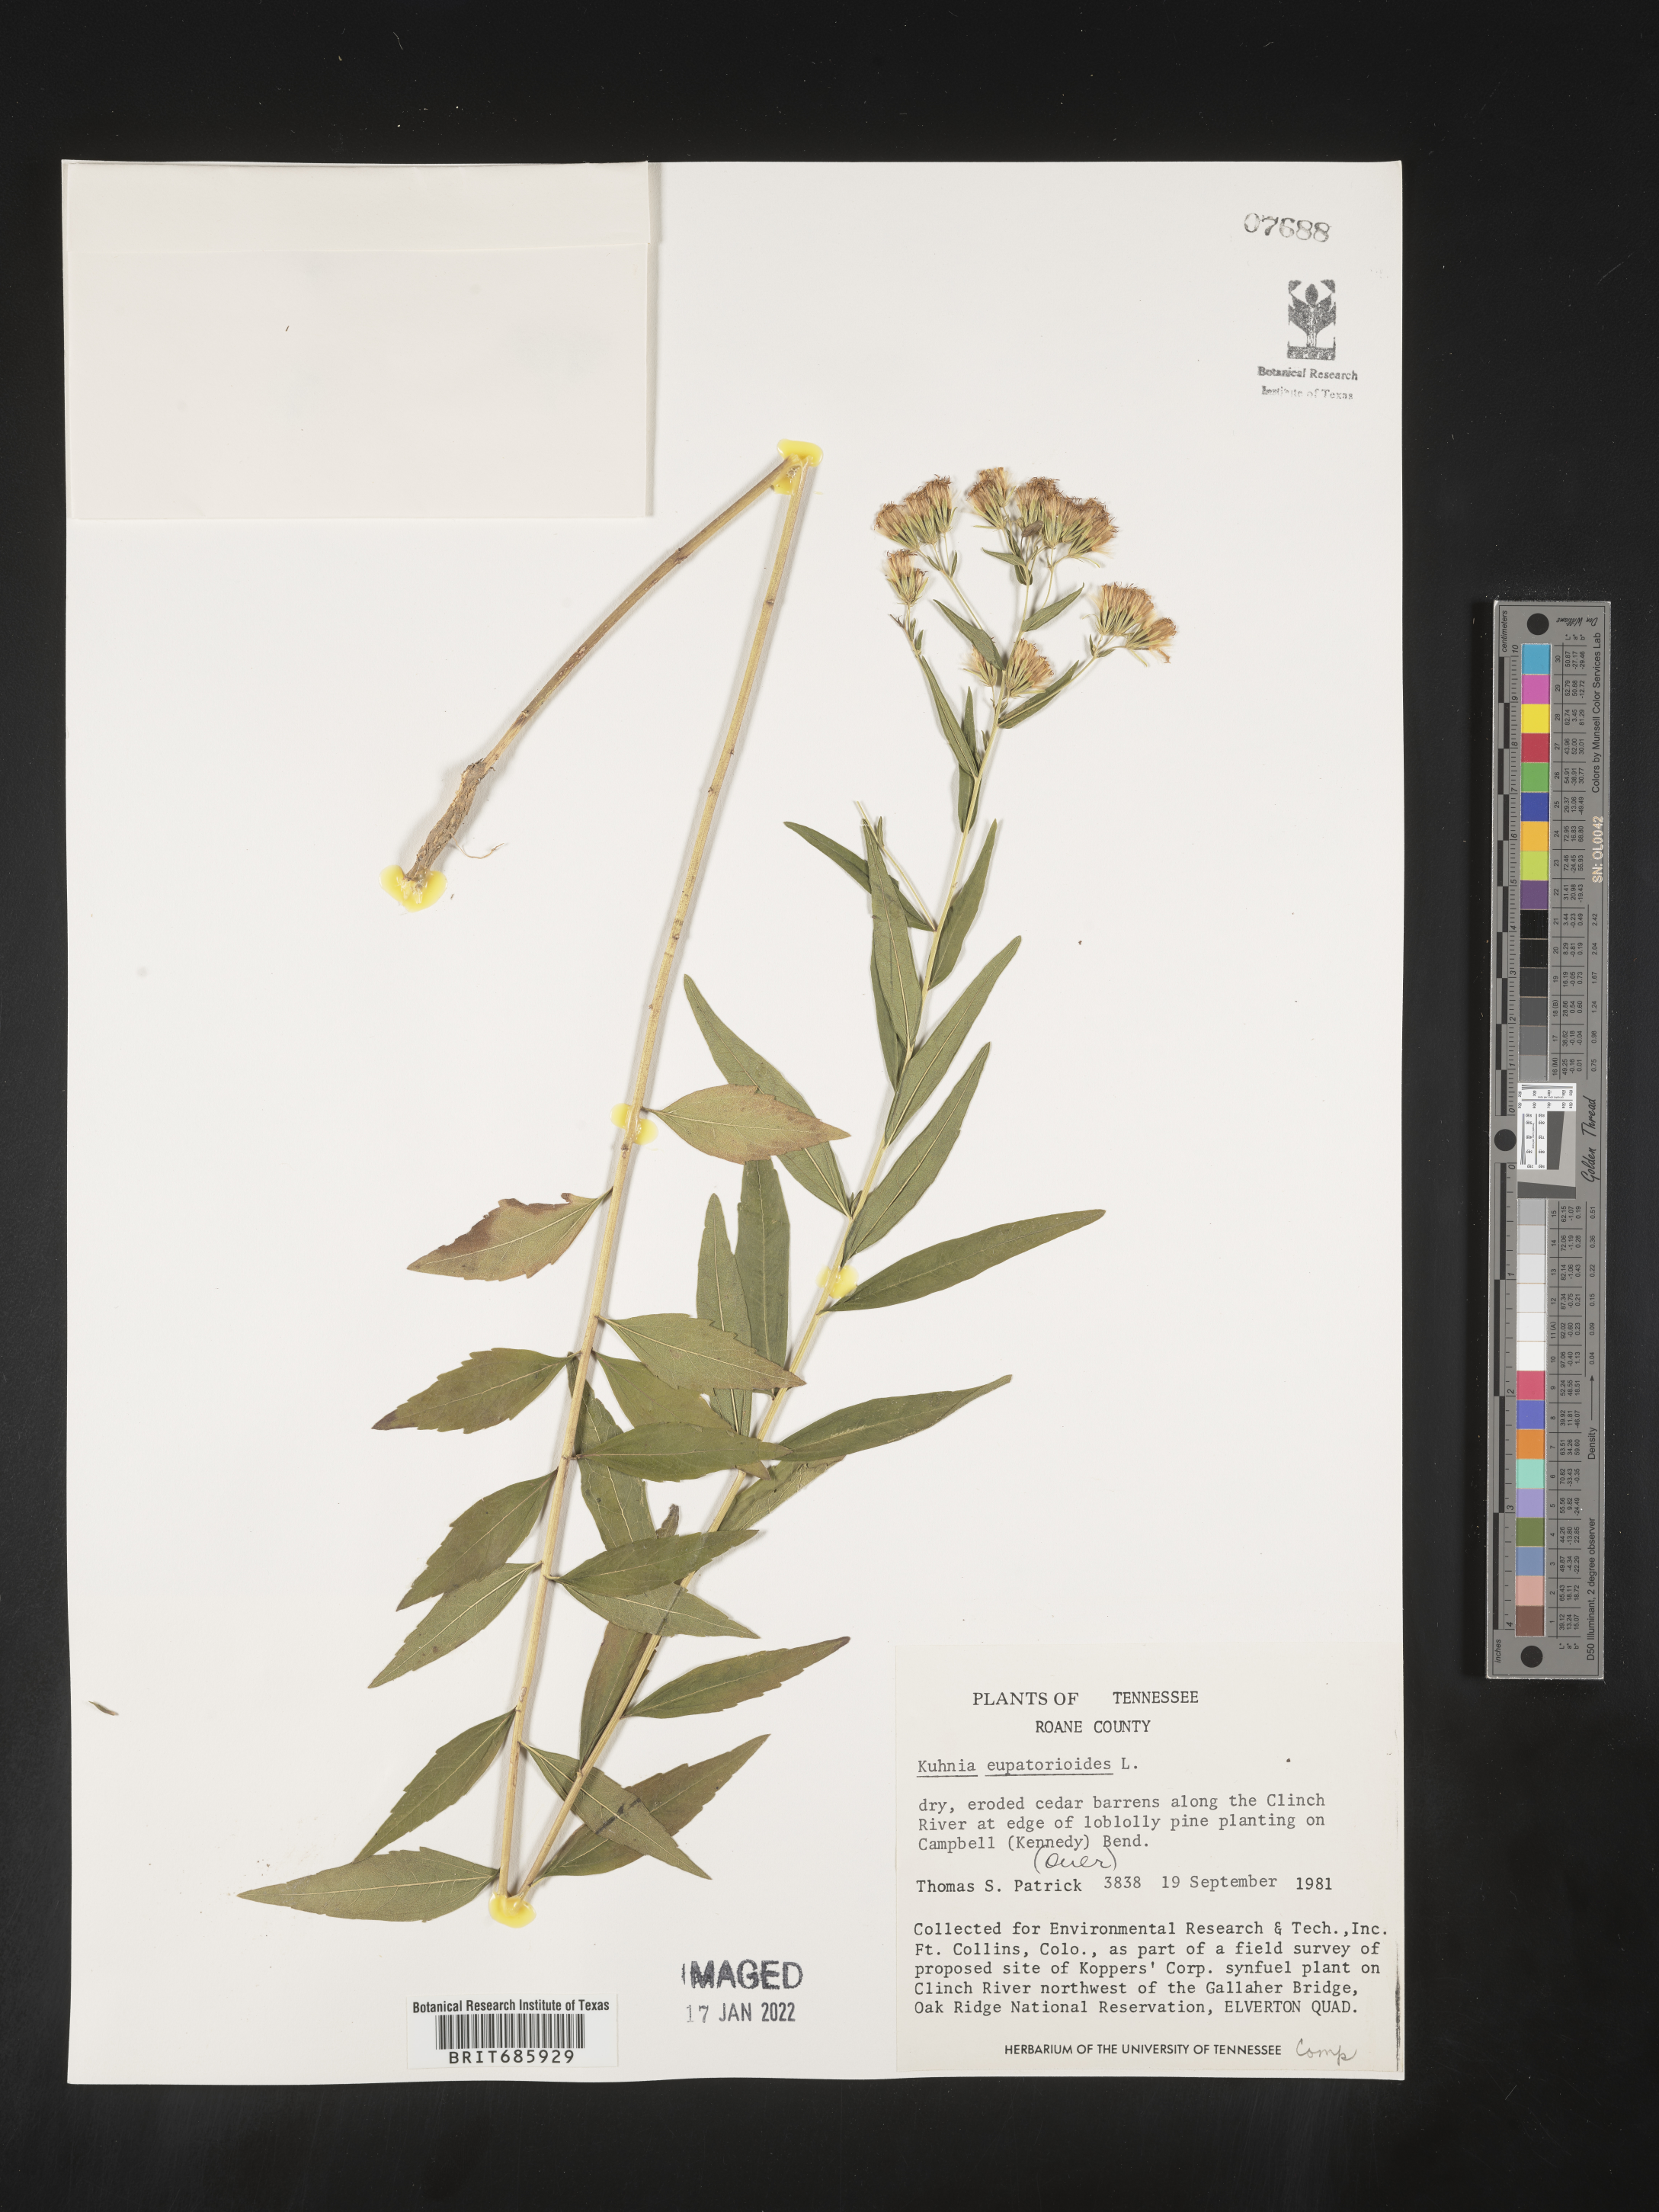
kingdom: Plantae
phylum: Tracheophyta
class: Magnoliopsida
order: Asterales
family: Asteraceae
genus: Brickellia
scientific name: Brickellia eupatorioides
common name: False boneset
